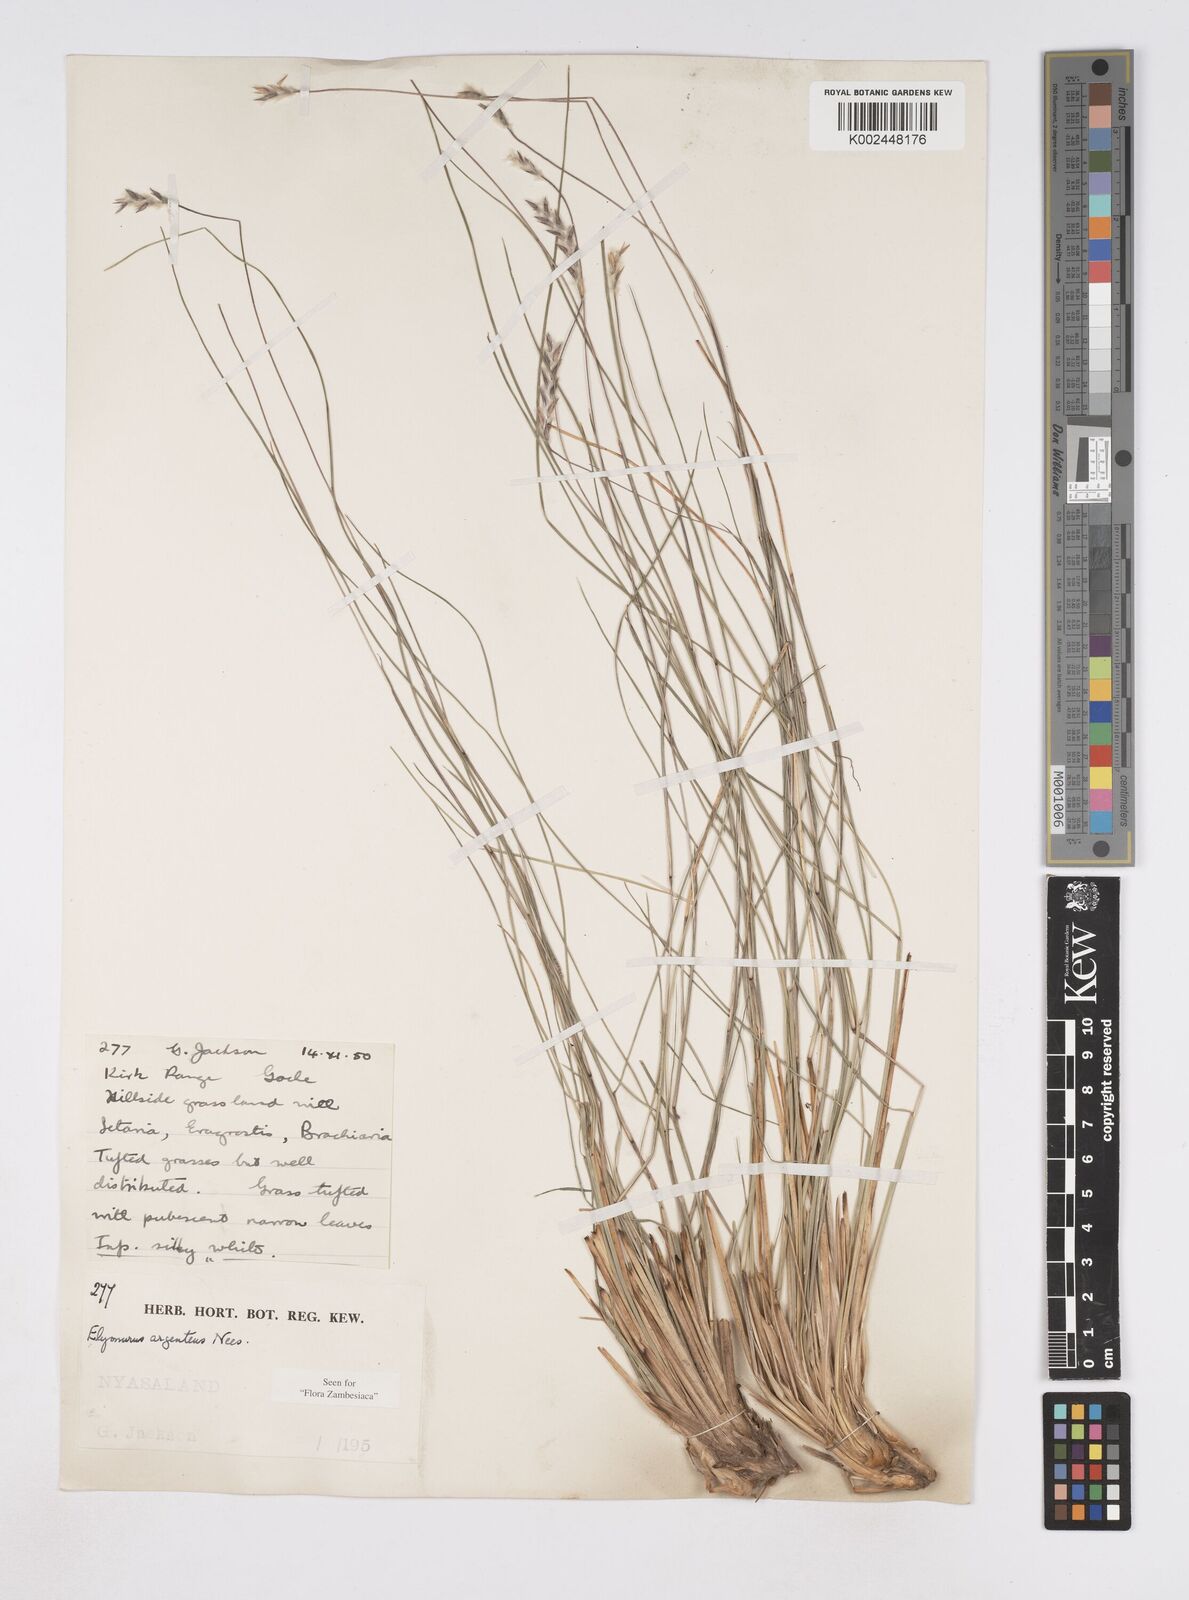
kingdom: Plantae
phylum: Tracheophyta
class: Liliopsida
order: Poales
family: Poaceae
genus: Elionurus
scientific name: Elionurus muticus
